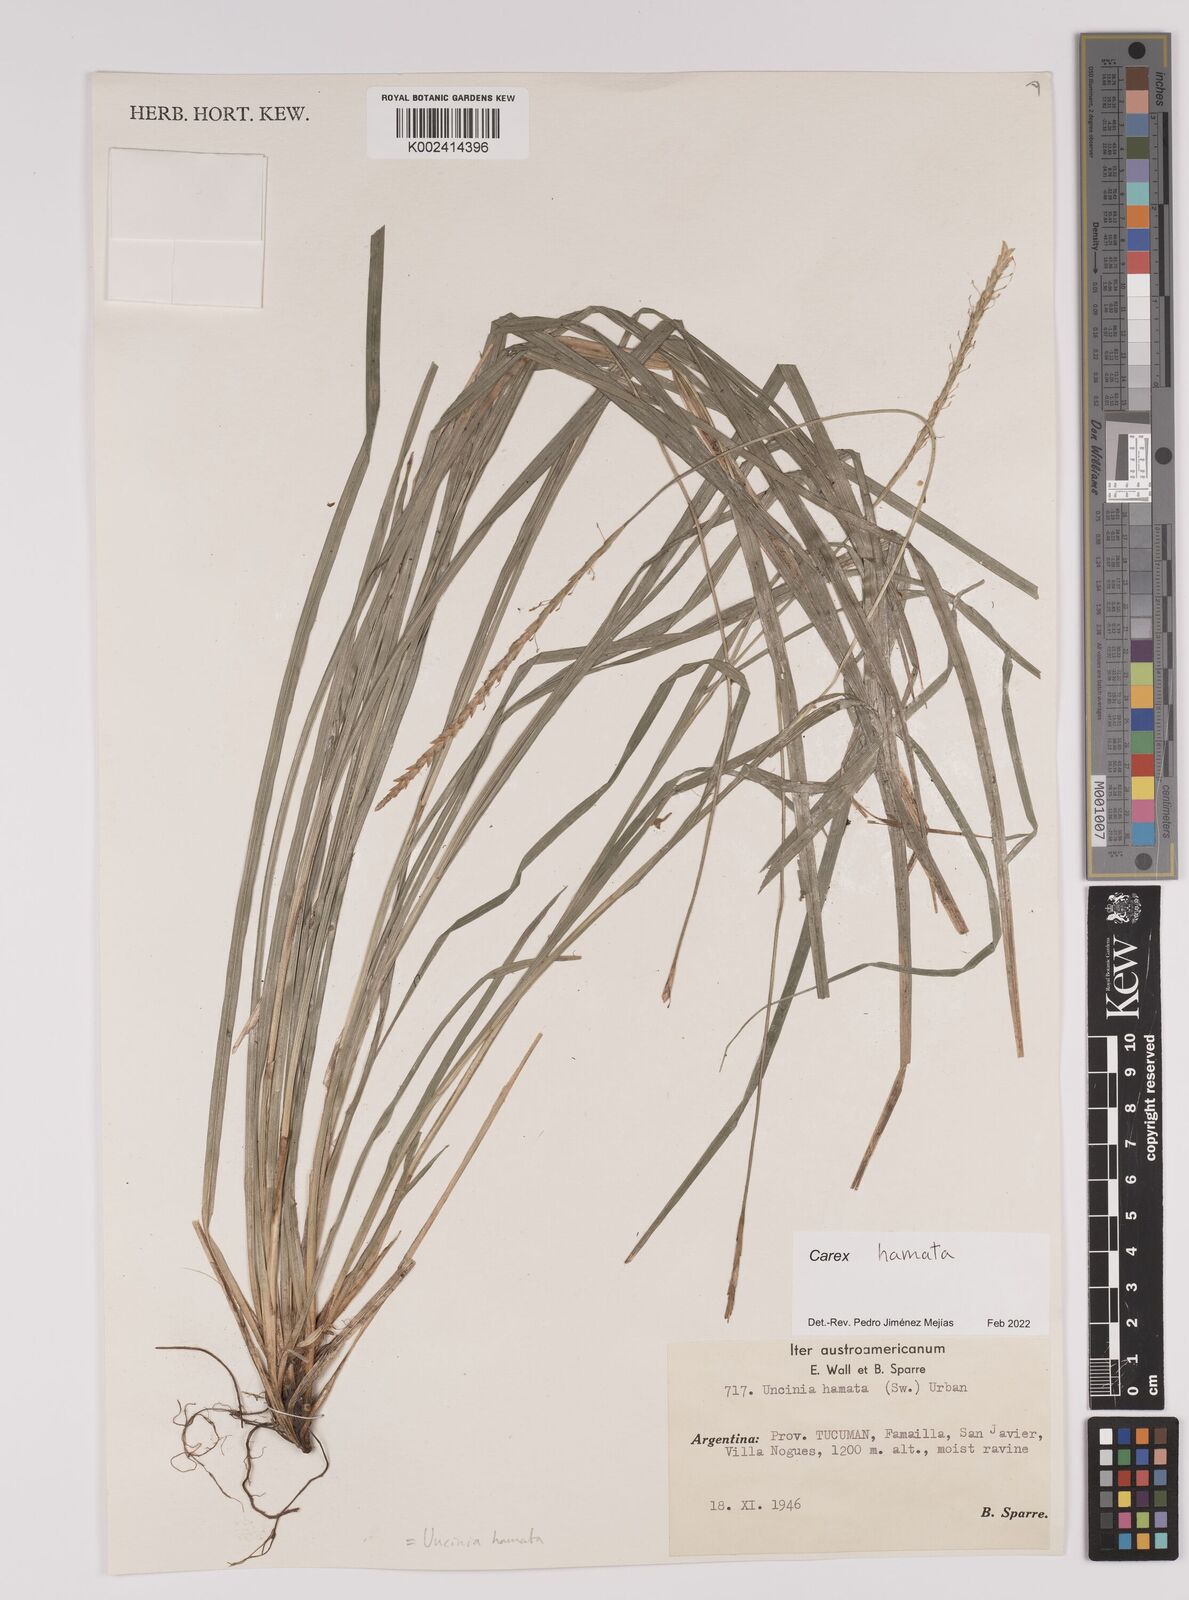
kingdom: Plantae
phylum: Tracheophyta
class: Liliopsida
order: Poales
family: Cyperaceae
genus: Carex
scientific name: Carex hamata
